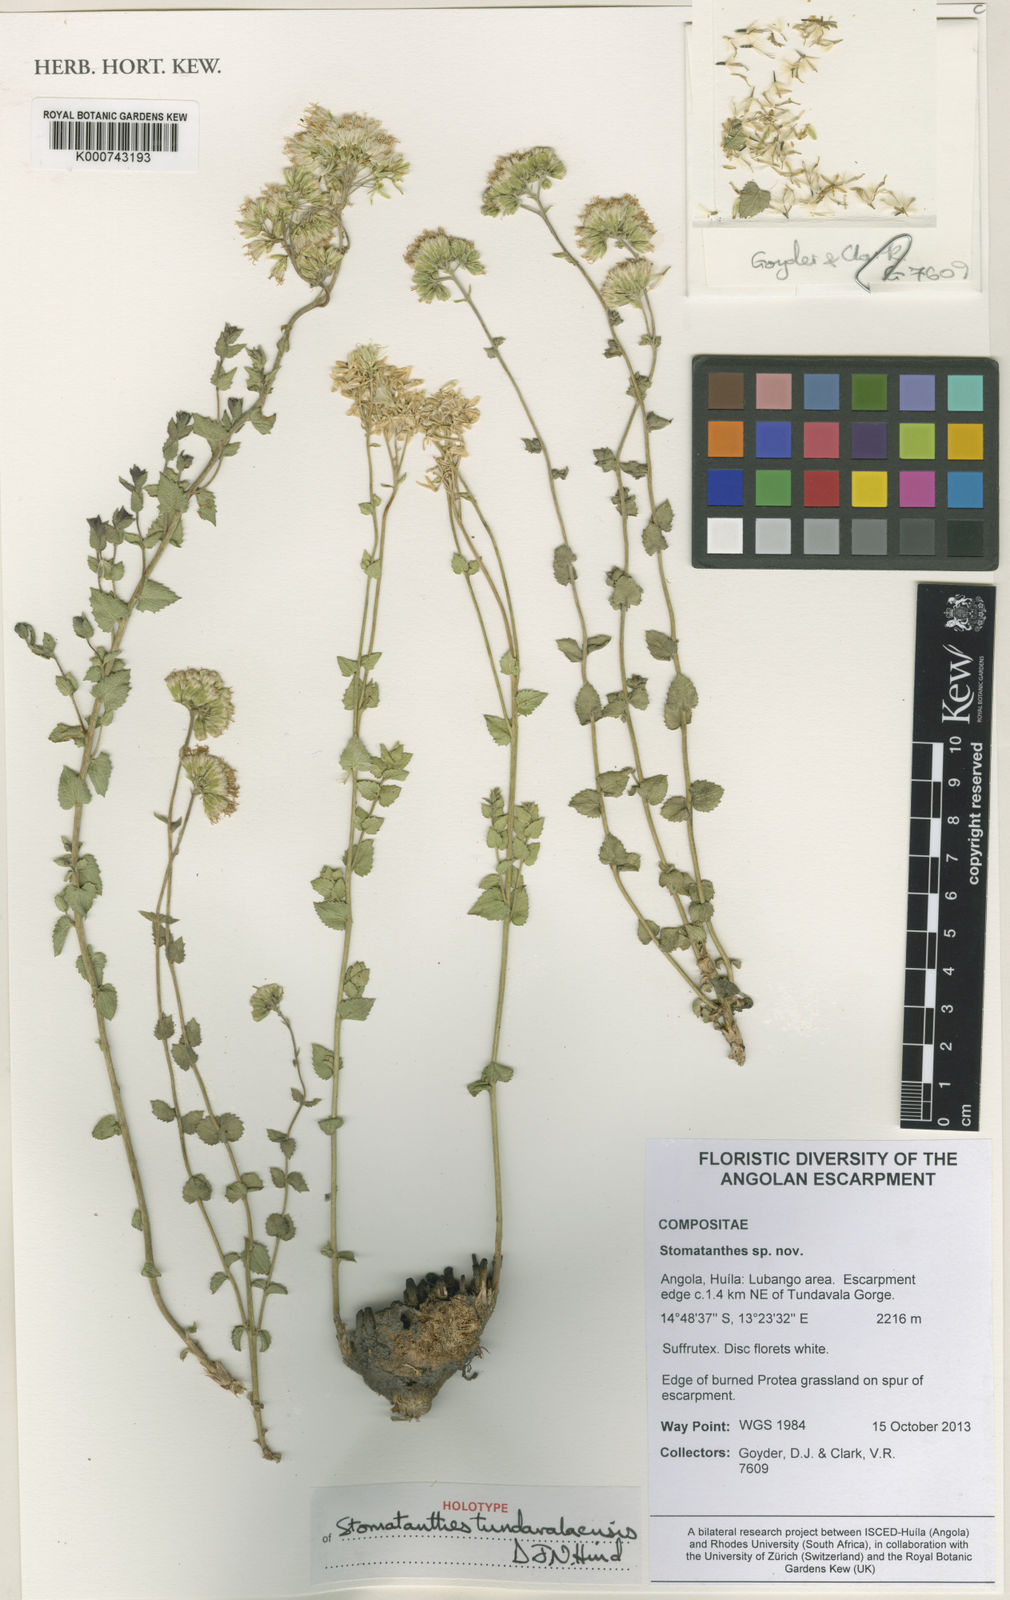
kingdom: Plantae
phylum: Tracheophyta
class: Magnoliopsida
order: Asterales
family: Asteraceae
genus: Stomatanthes
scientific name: Stomatanthes tundavalaensis
